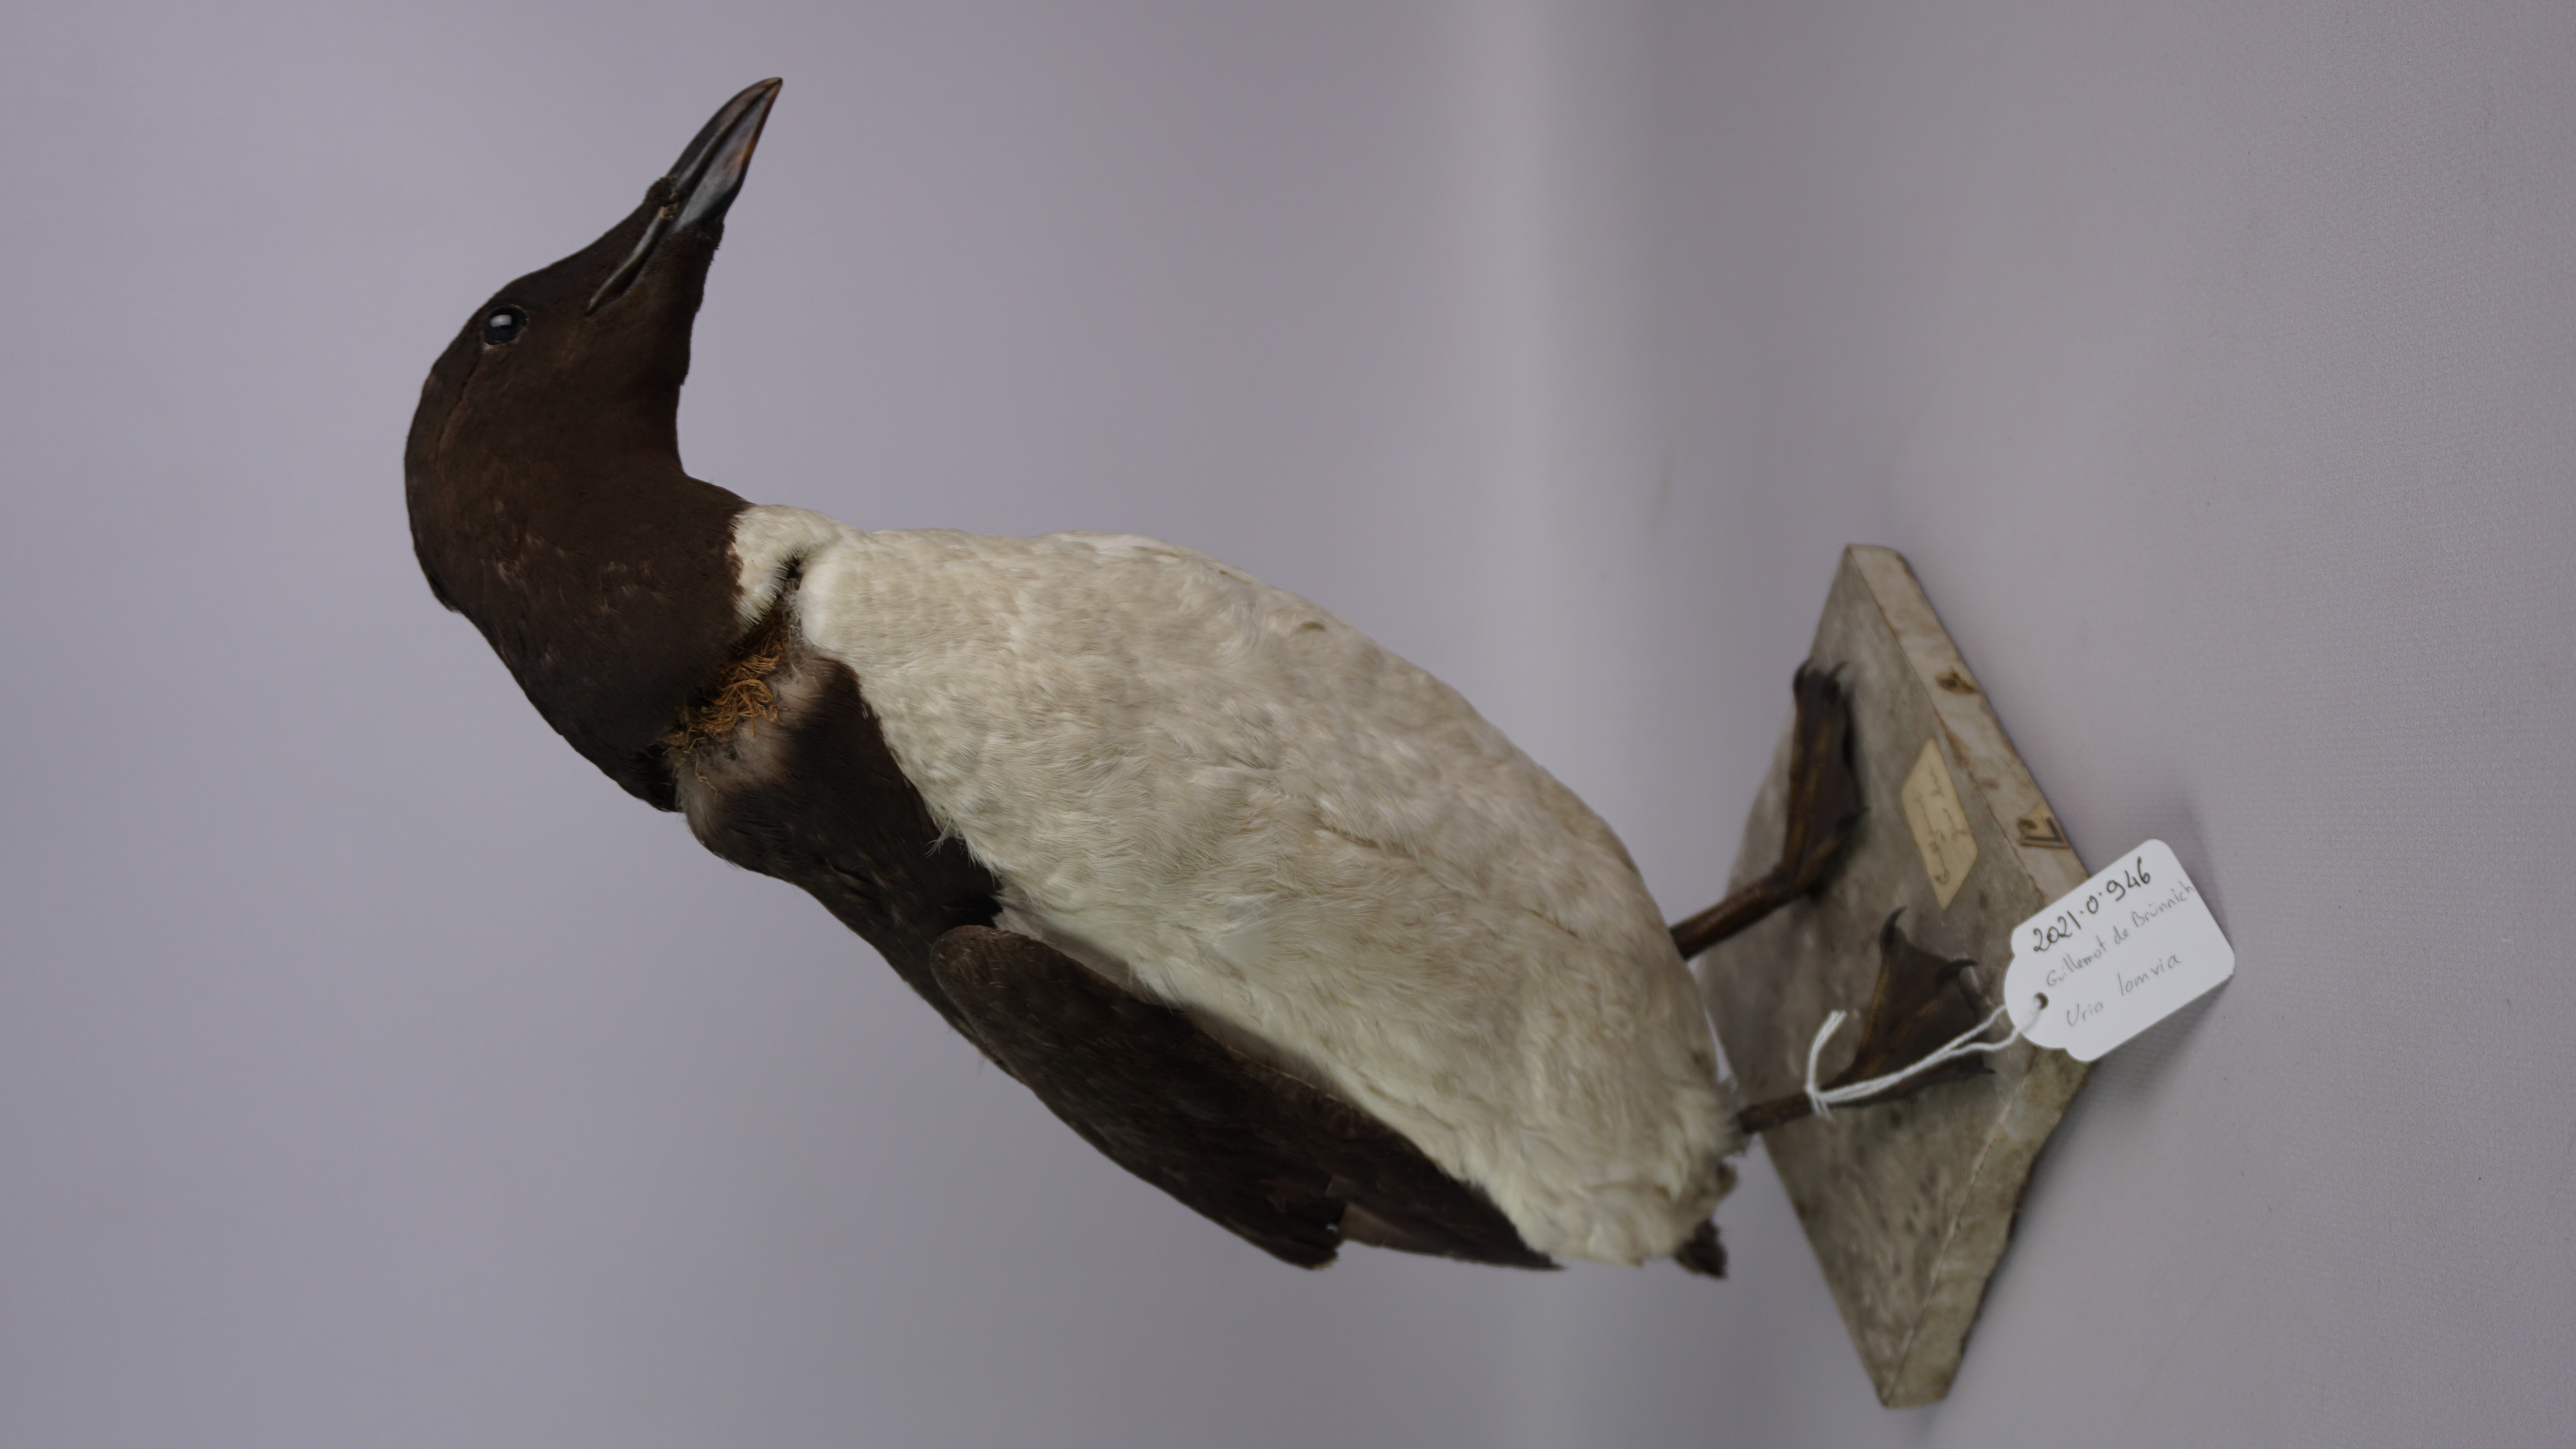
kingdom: Animalia
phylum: Chordata
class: Aves
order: Charadriiformes
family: Alcidae
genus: Uria
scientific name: Uria lomvia
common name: Thick-billed murre
